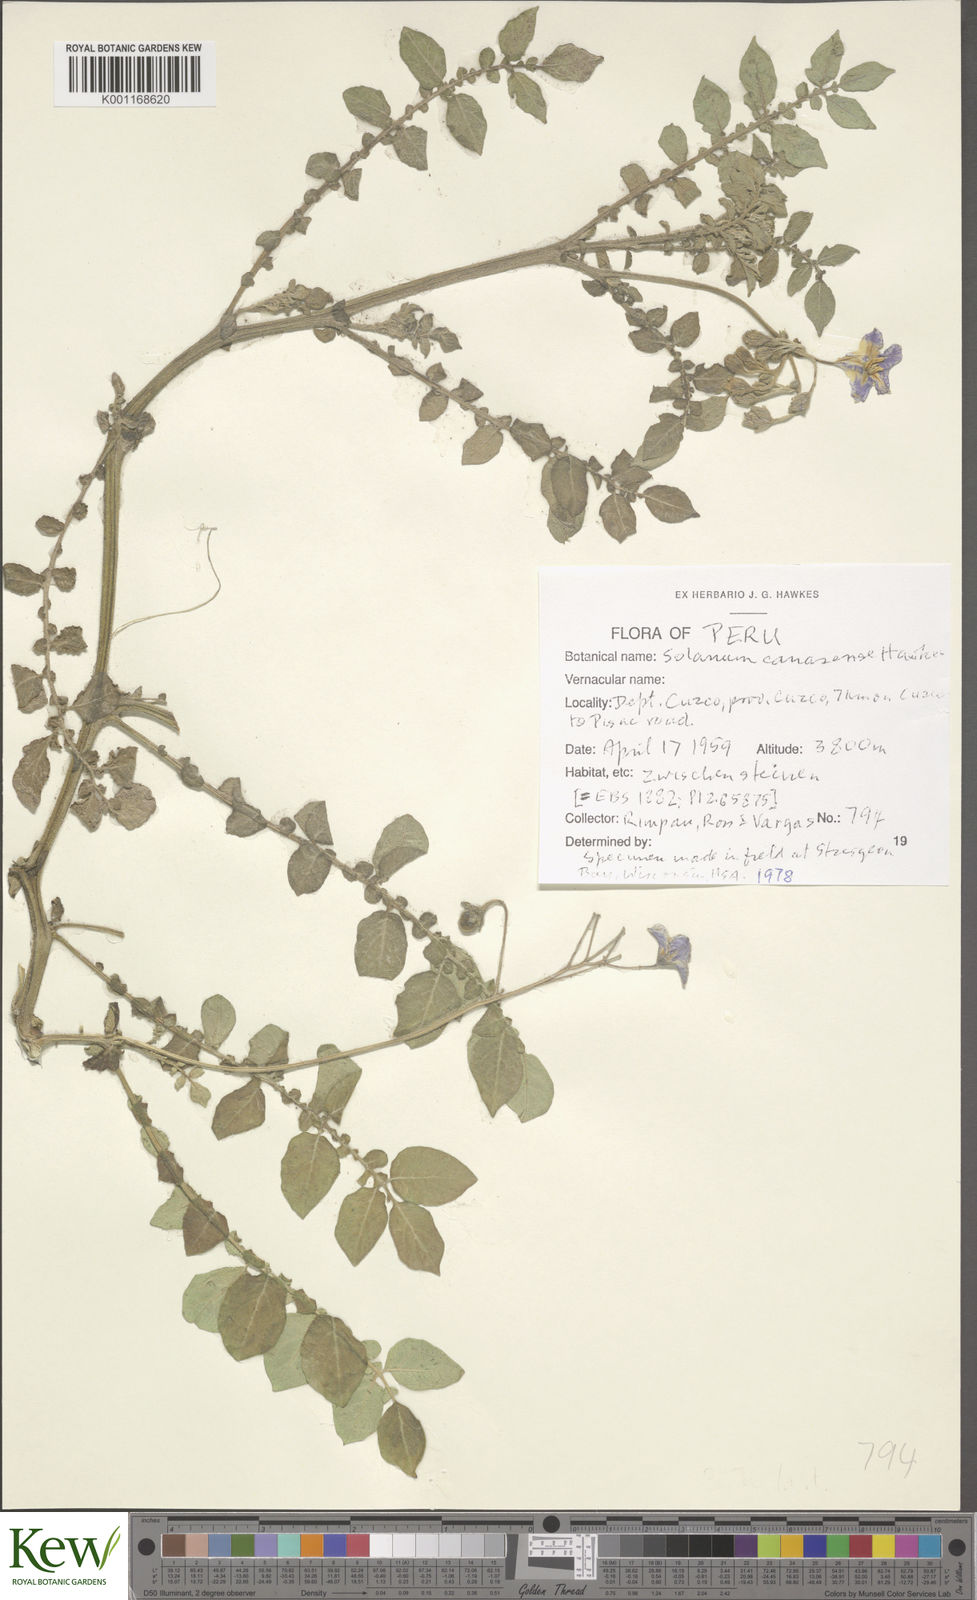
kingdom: Plantae
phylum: Tracheophyta
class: Magnoliopsida
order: Solanales
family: Solanaceae
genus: Solanum
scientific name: Solanum candolleanum
